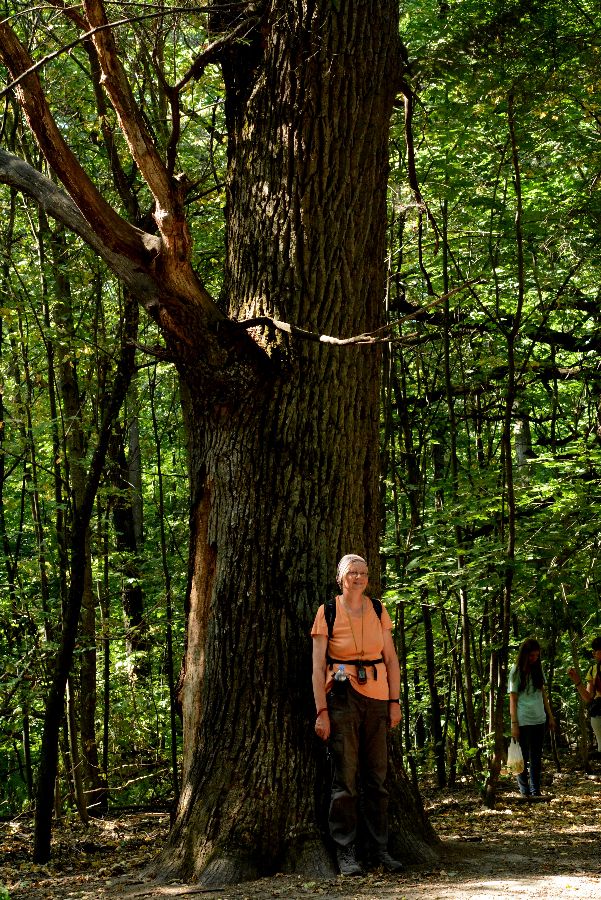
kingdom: Plantae
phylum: Tracheophyta
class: Magnoliopsida
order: Fagales
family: Fagaceae
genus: Quercus
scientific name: Quercus robur
